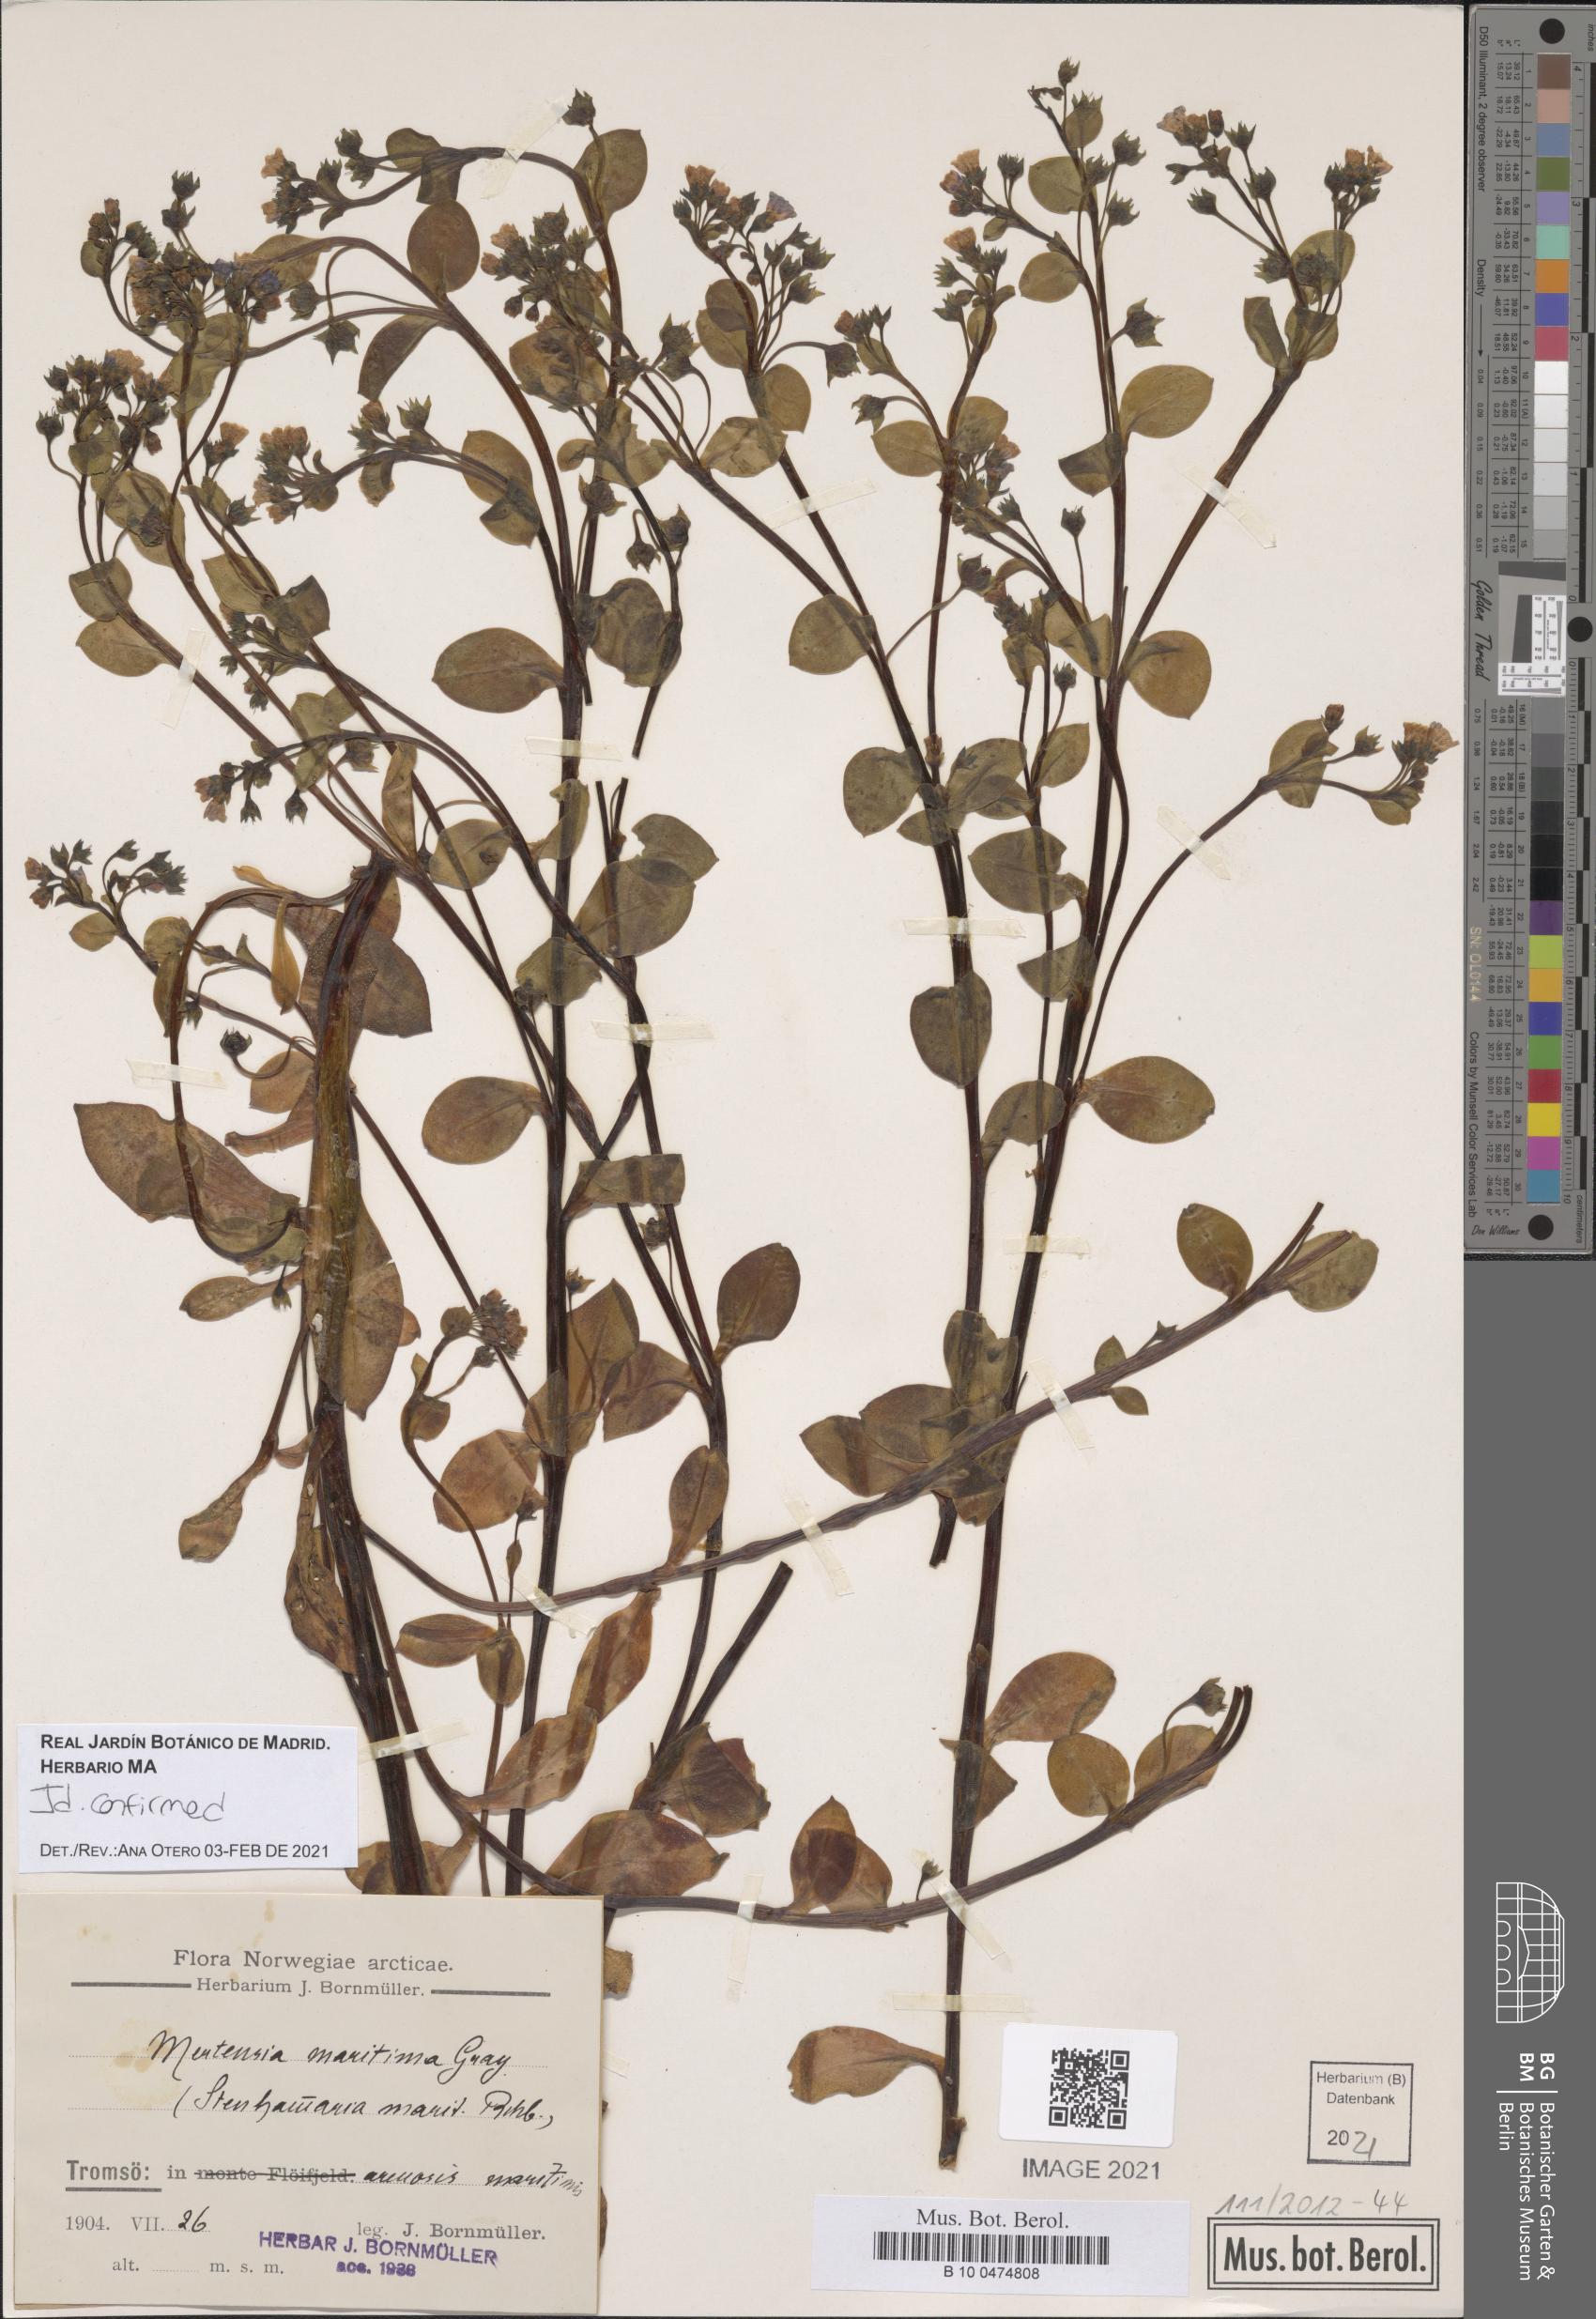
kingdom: Plantae
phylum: Tracheophyta
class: Magnoliopsida
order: Boraginales
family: Boraginaceae
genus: Mertensia
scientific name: Mertensia maritima
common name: Oysterplant
